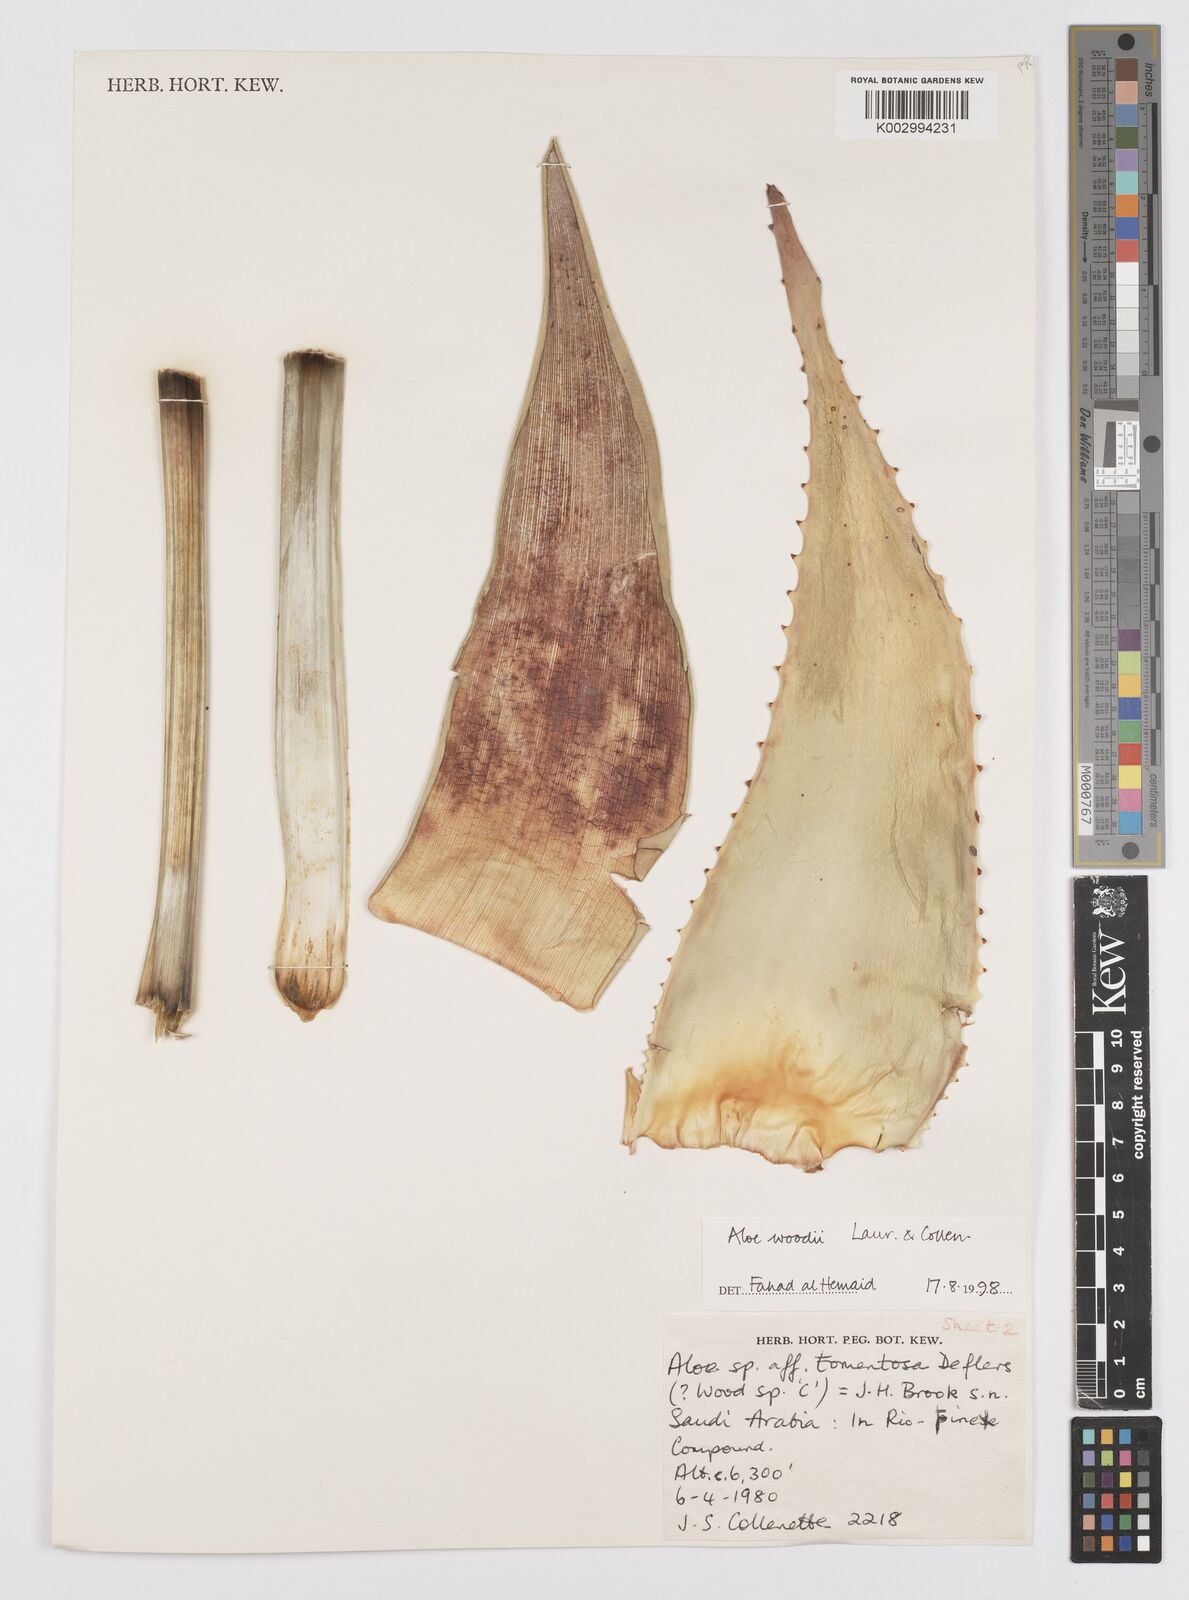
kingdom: Plantae
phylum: Tracheophyta
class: Liliopsida
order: Asparagales
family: Asphodelaceae
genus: Aloe
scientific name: Aloe woodii
